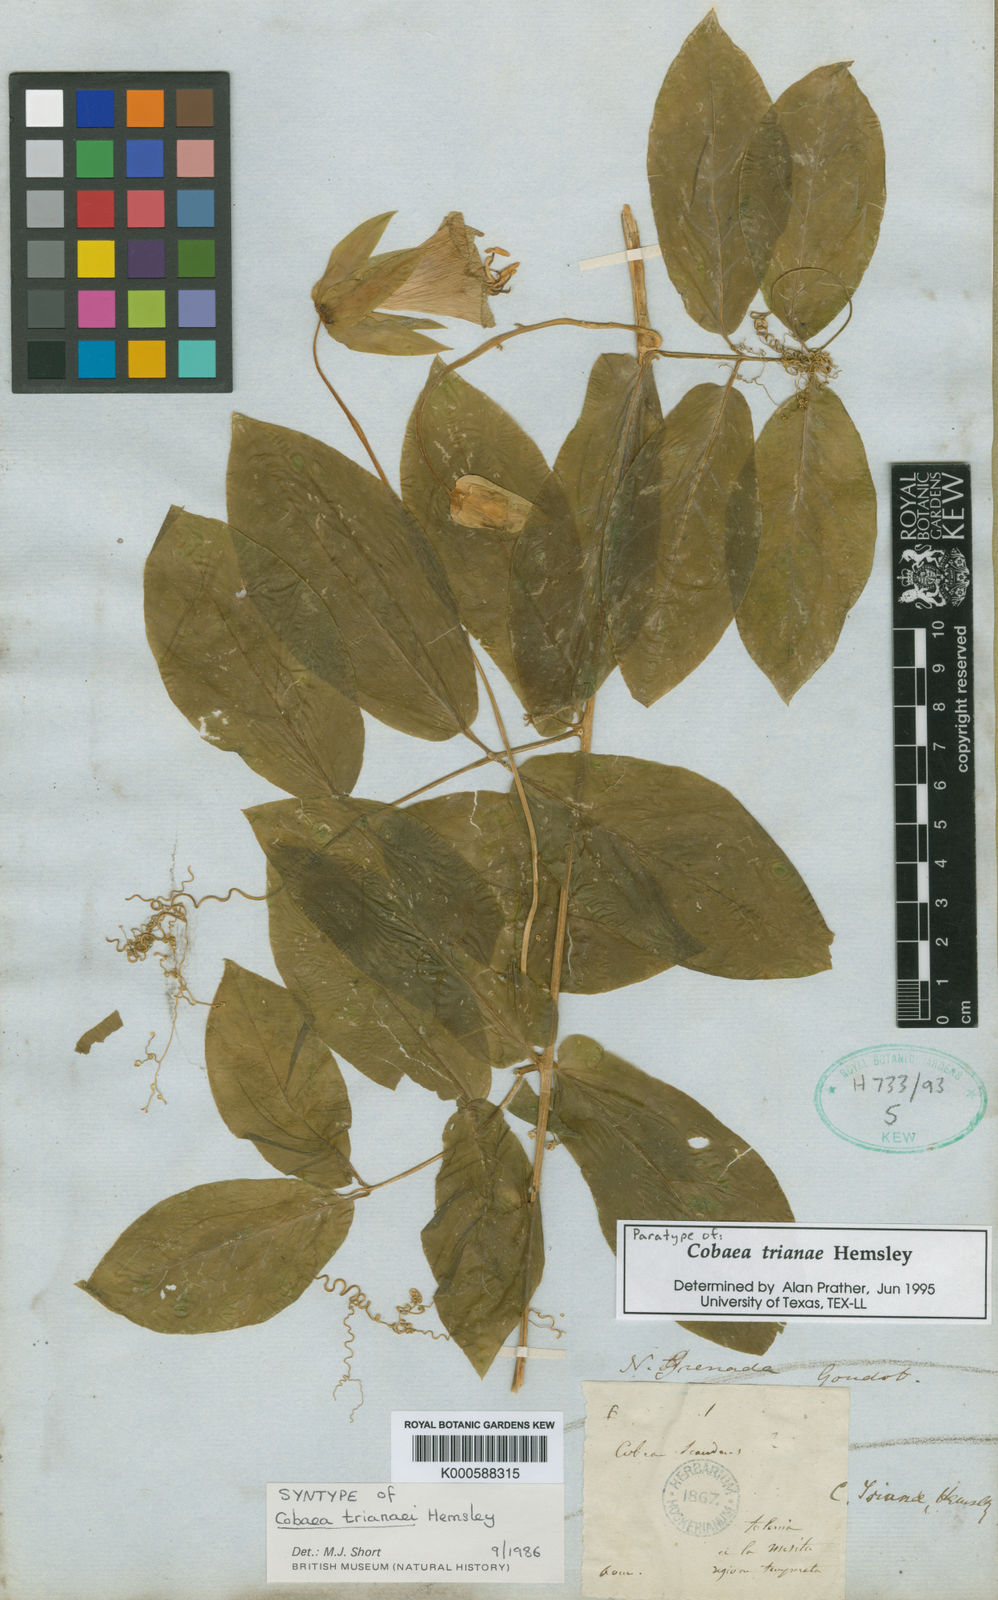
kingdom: Plantae
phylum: Tracheophyta
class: Magnoliopsida
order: Ericales
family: Polemoniaceae
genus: Cobaea
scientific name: Cobaea trianae
